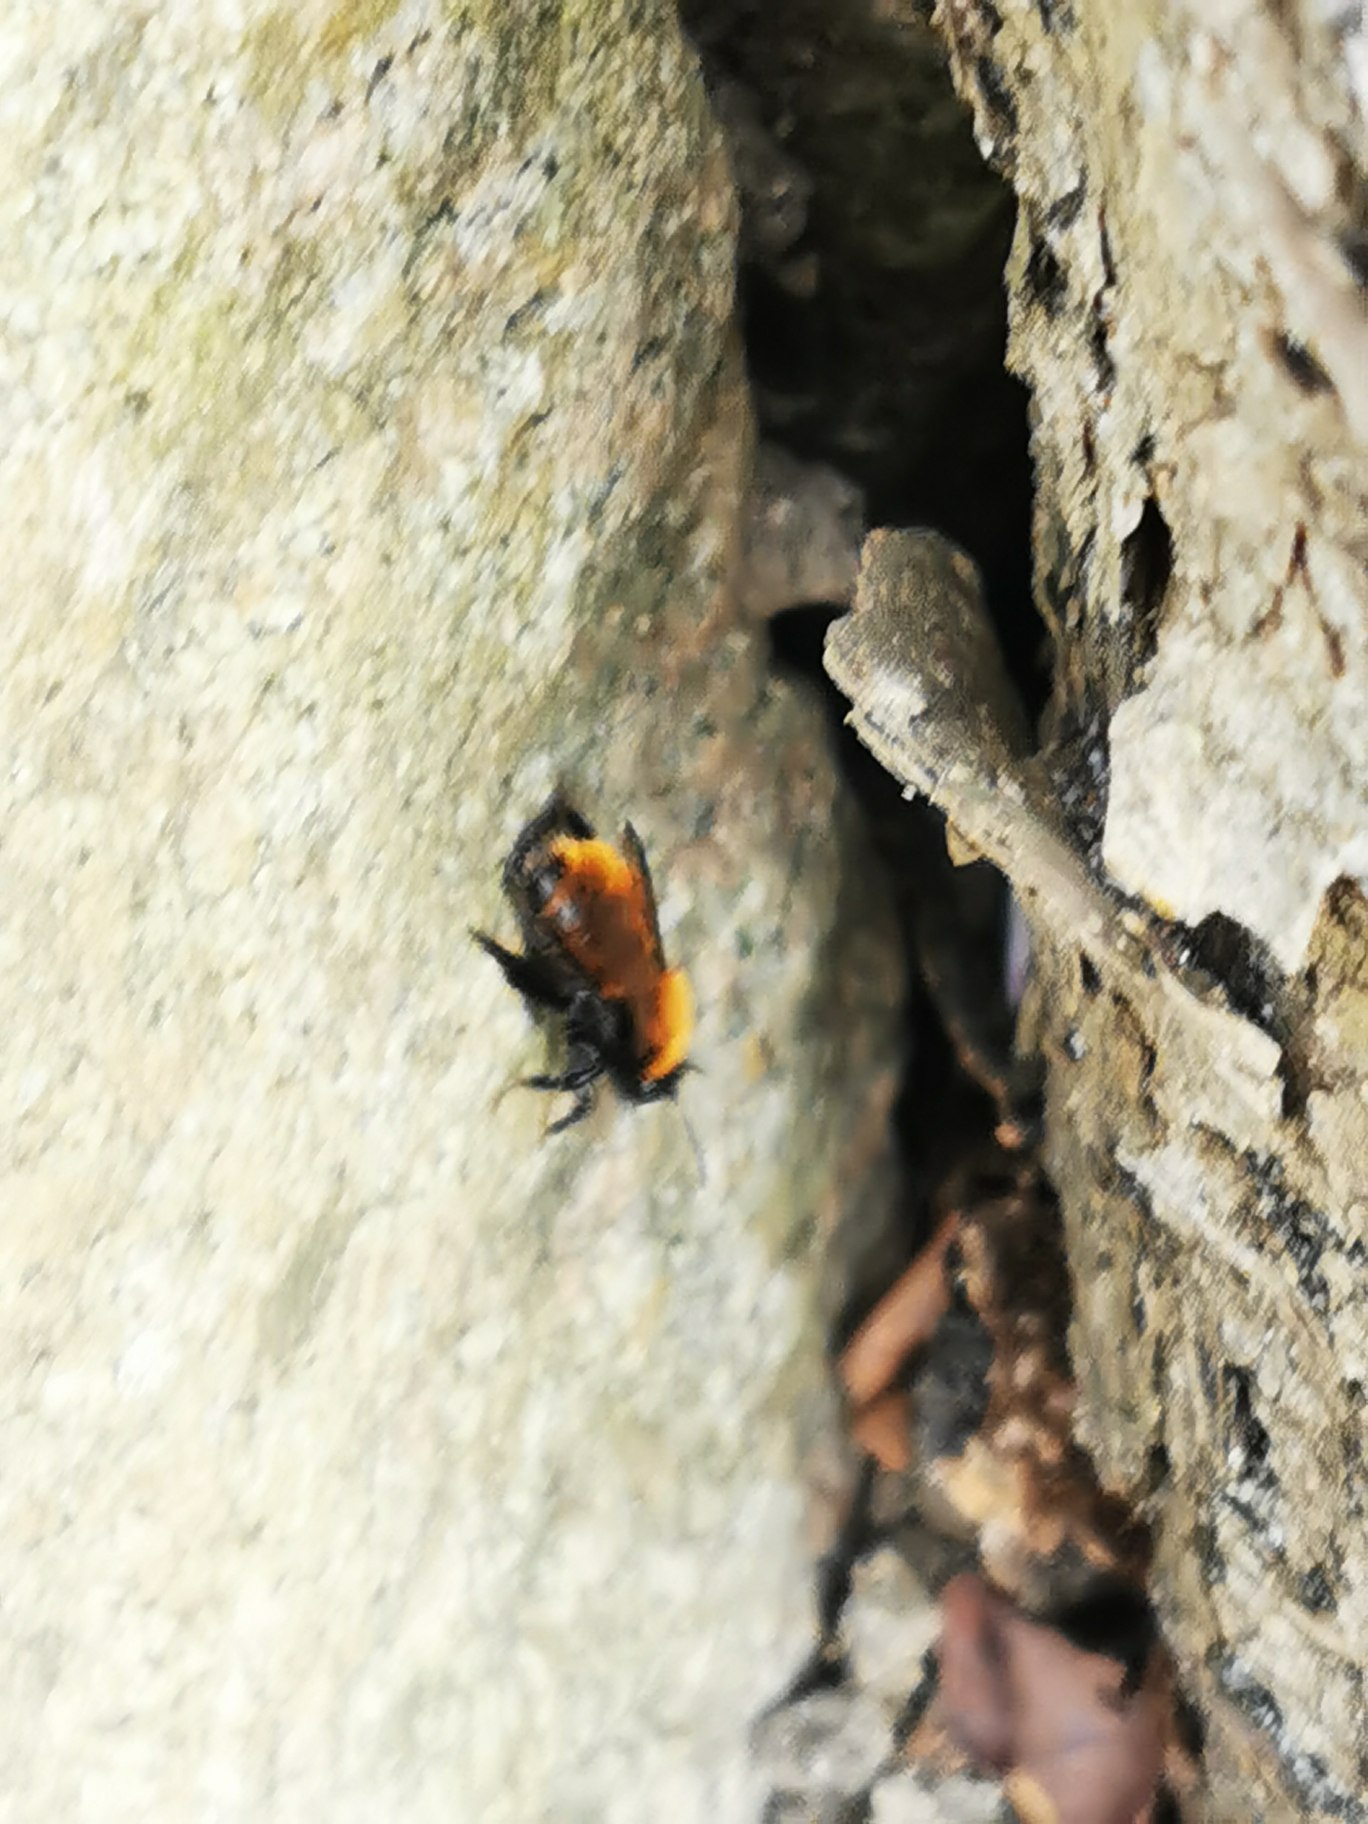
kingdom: Animalia
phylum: Arthropoda
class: Insecta
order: Hymenoptera
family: Andrenidae
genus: Andrena
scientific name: Andrena fulva
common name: Rødpelset jordbi
